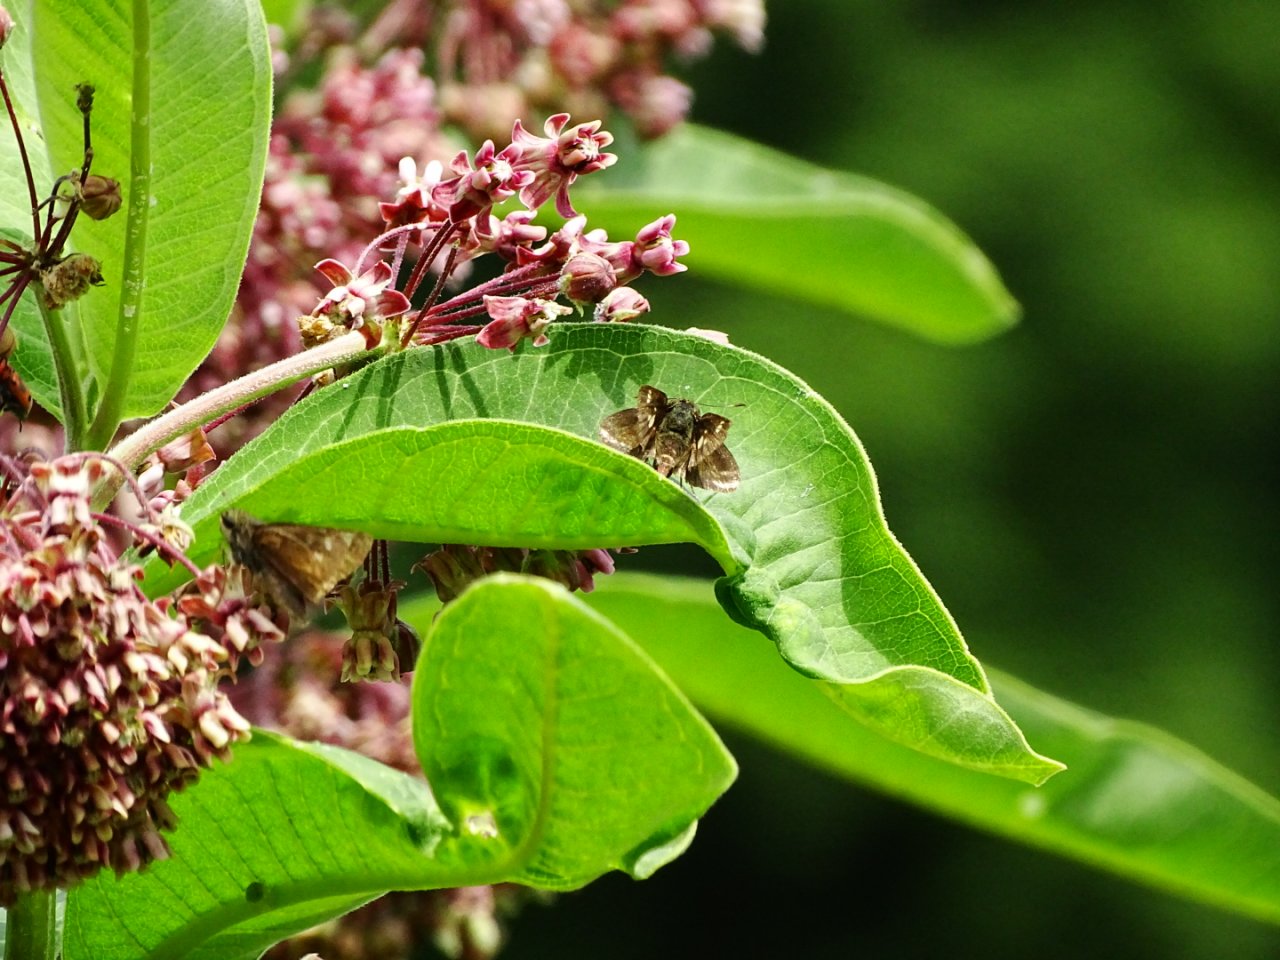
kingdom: Animalia
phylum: Arthropoda
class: Insecta
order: Lepidoptera
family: Hesperiidae
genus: Vernia
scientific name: Vernia verna
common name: Little Glassywing
